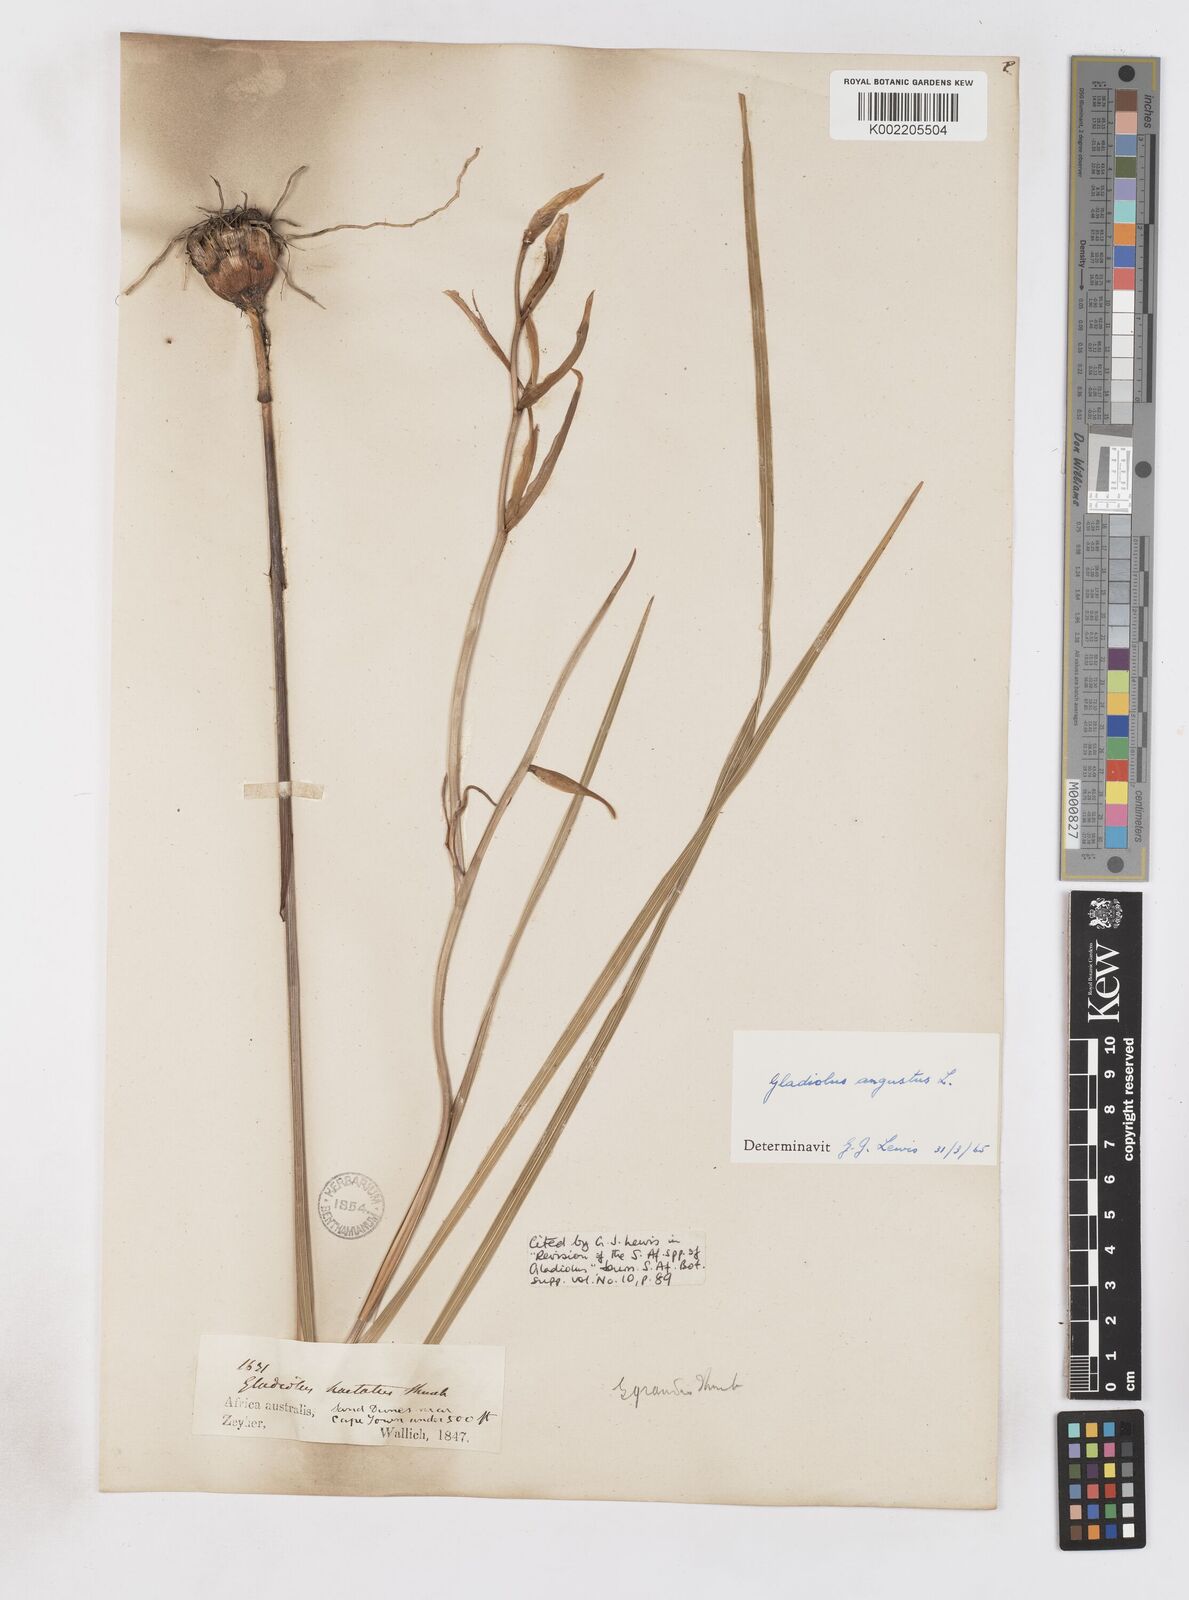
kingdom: Plantae
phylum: Tracheophyta
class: Liliopsida
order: Asparagales
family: Iridaceae
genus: Gladiolus
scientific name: Gladiolus angustus
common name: Painted-lady
